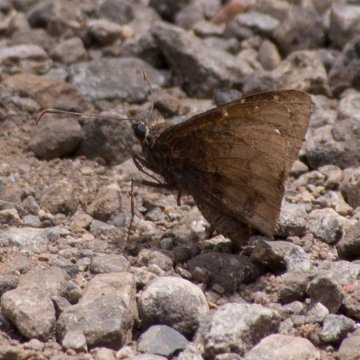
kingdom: Animalia
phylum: Arthropoda
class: Insecta
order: Lepidoptera
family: Hesperiidae
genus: Autochton
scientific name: Autochton
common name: Northern Cloudywing
